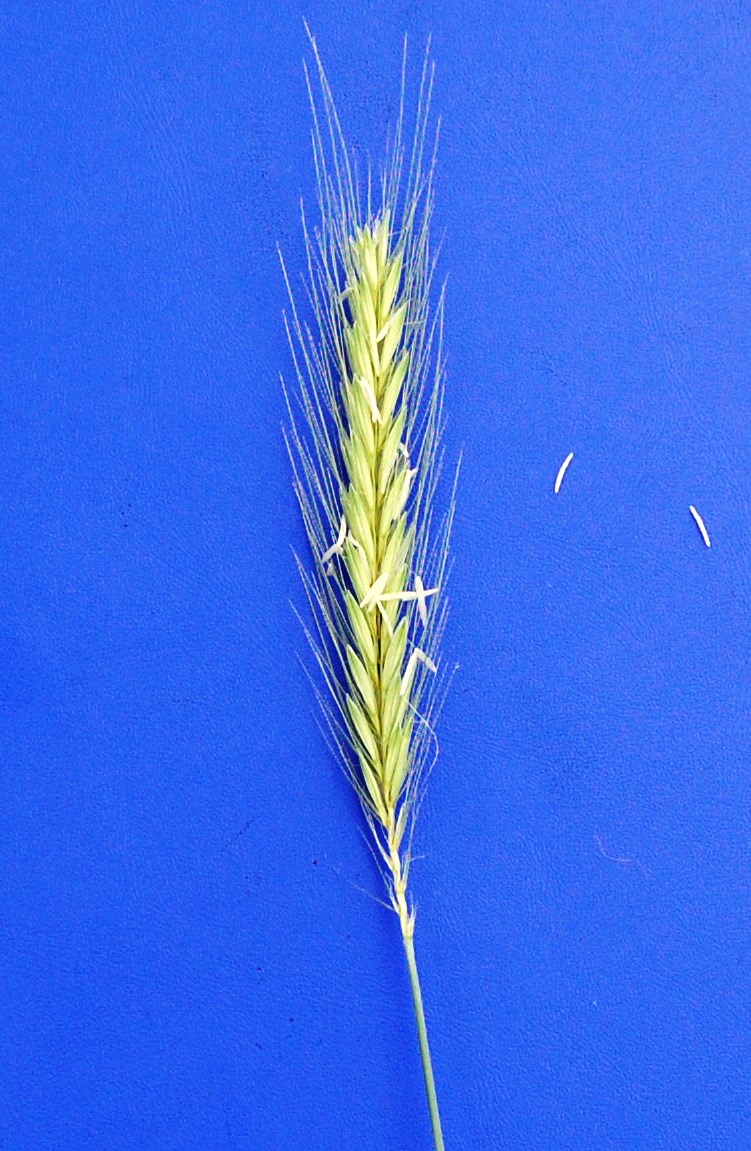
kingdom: Plantae
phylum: Tracheophyta
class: Liliopsida
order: Poales
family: Poaceae
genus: Hordeum
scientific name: Hordeum bulbosum
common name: Bulbous barley
